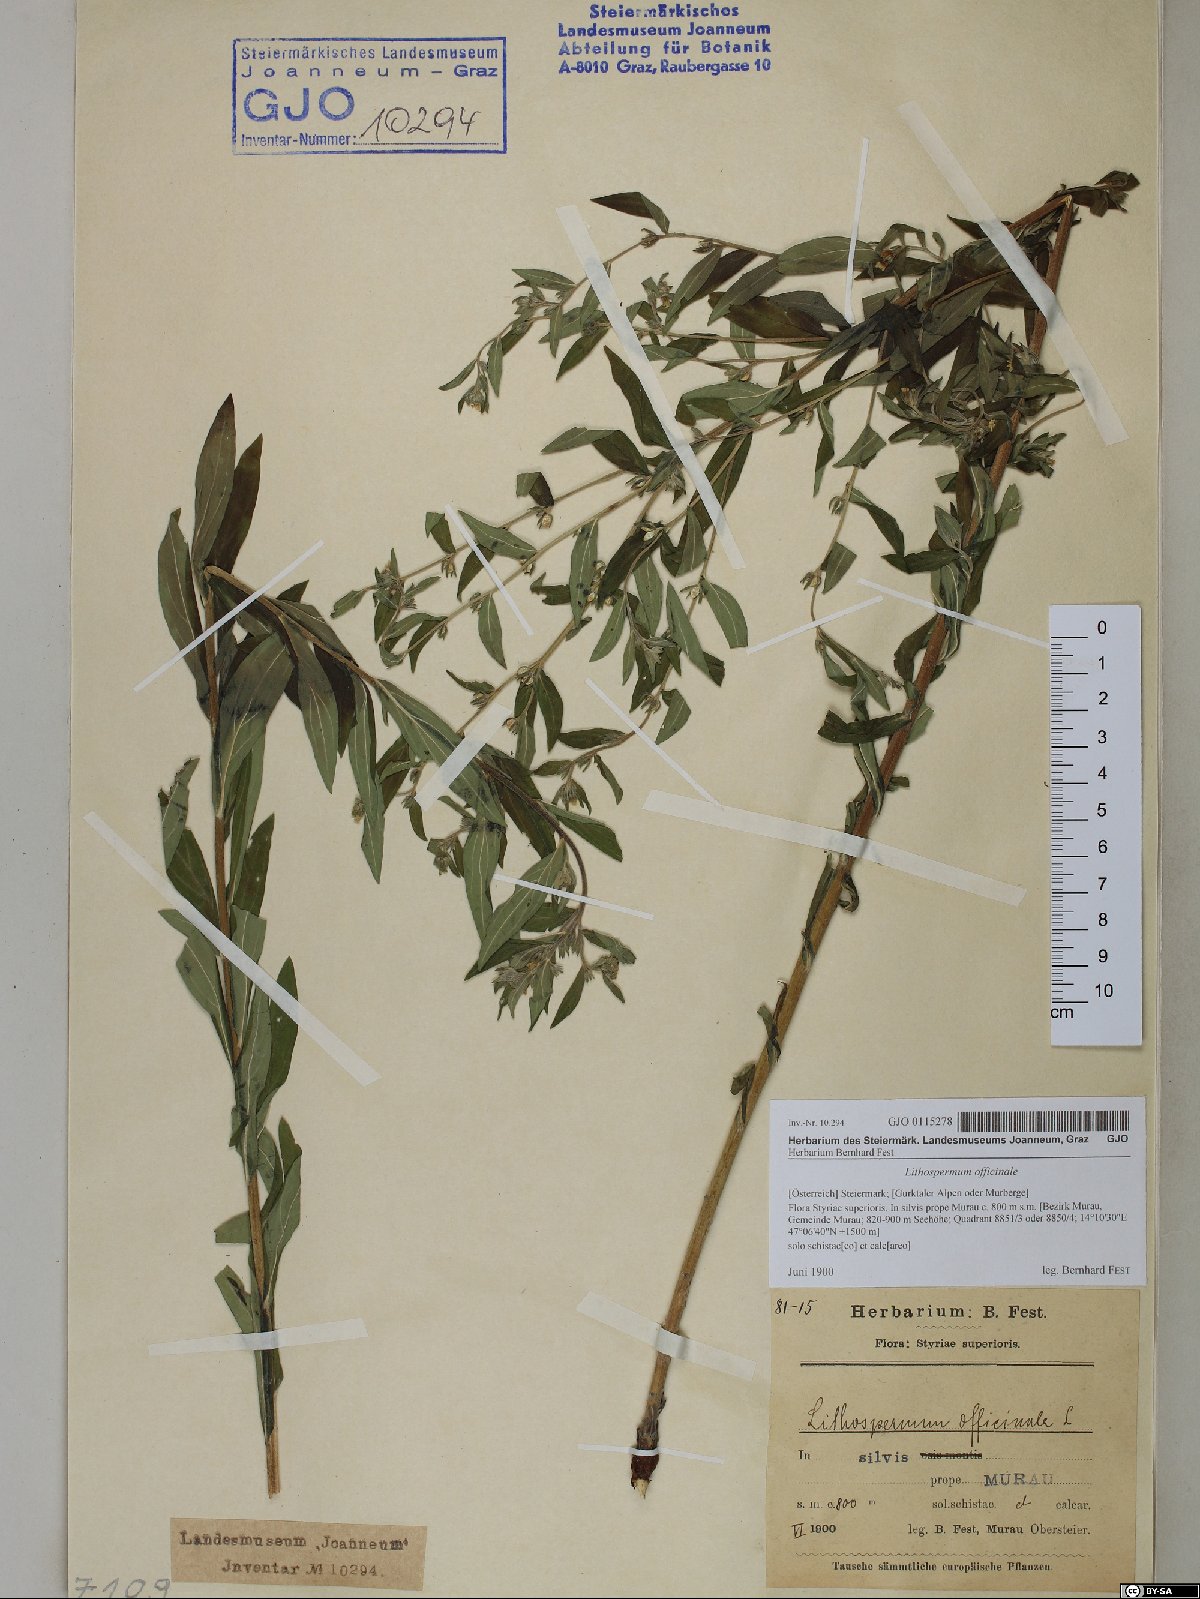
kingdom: Plantae
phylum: Tracheophyta
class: Magnoliopsida
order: Boraginales
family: Boraginaceae
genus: Lithospermum
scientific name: Lithospermum officinale
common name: Common gromwell
